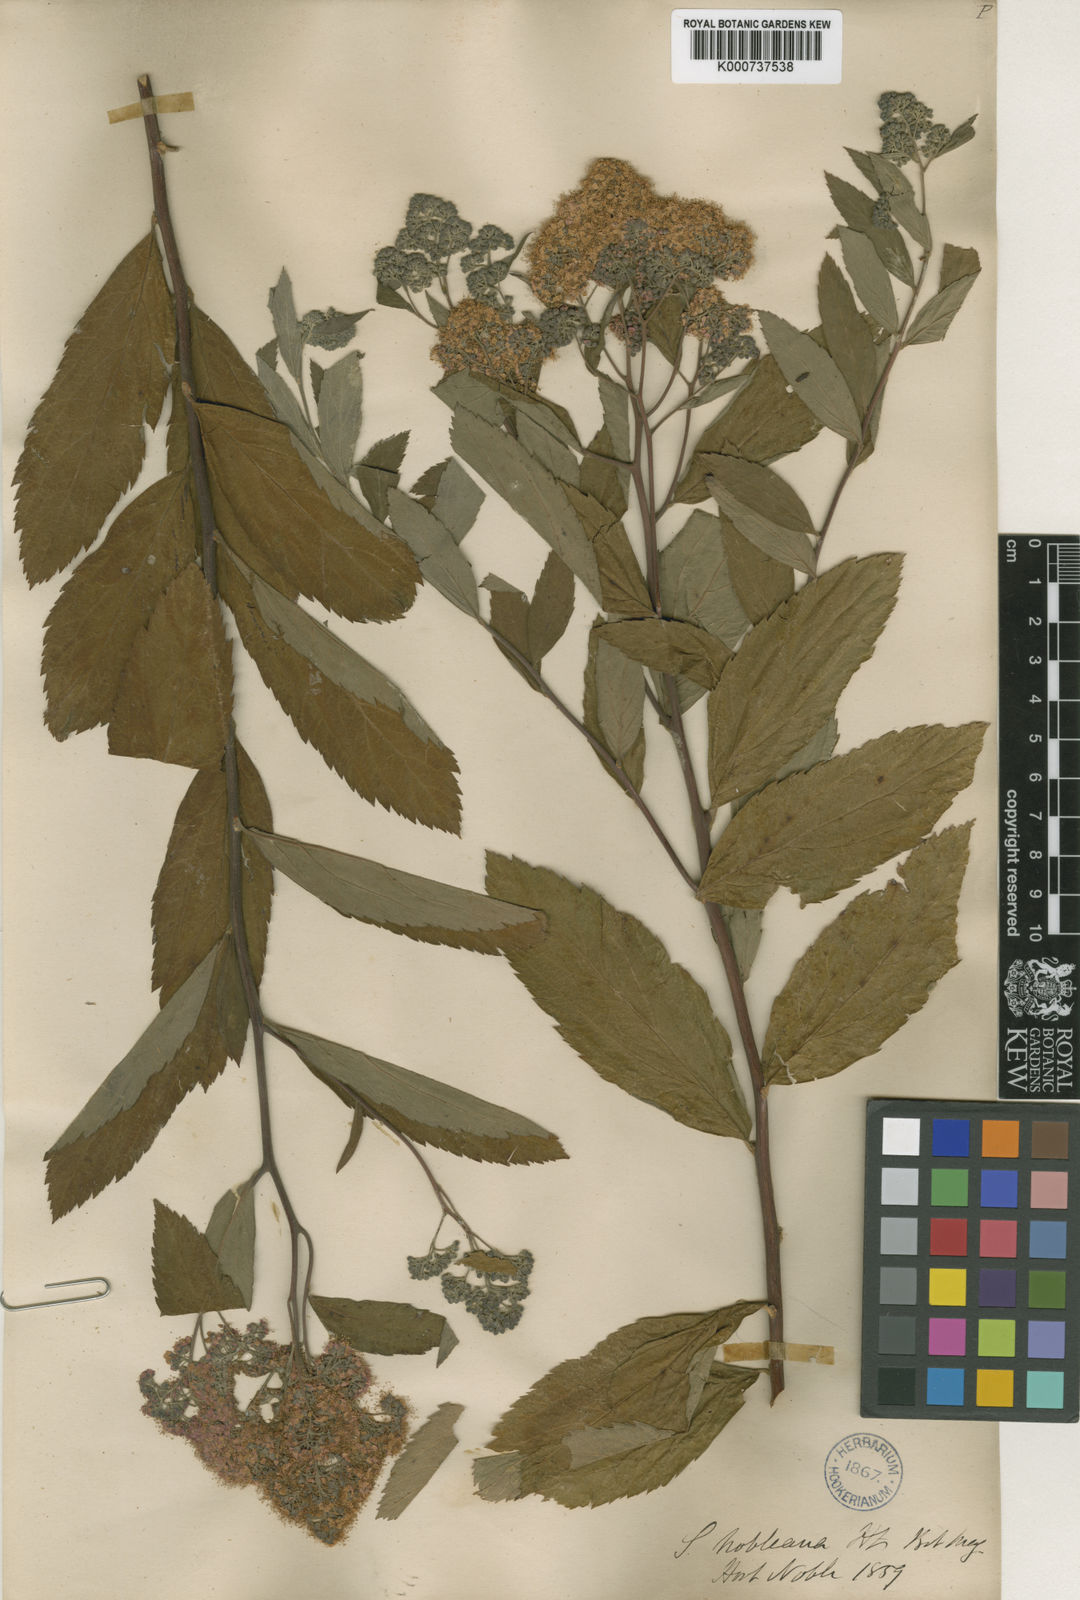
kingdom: Plantae
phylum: Tracheophyta
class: Magnoliopsida
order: Rosales
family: Rosaceae
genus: Spiraea
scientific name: Spiraea sanssouciana
